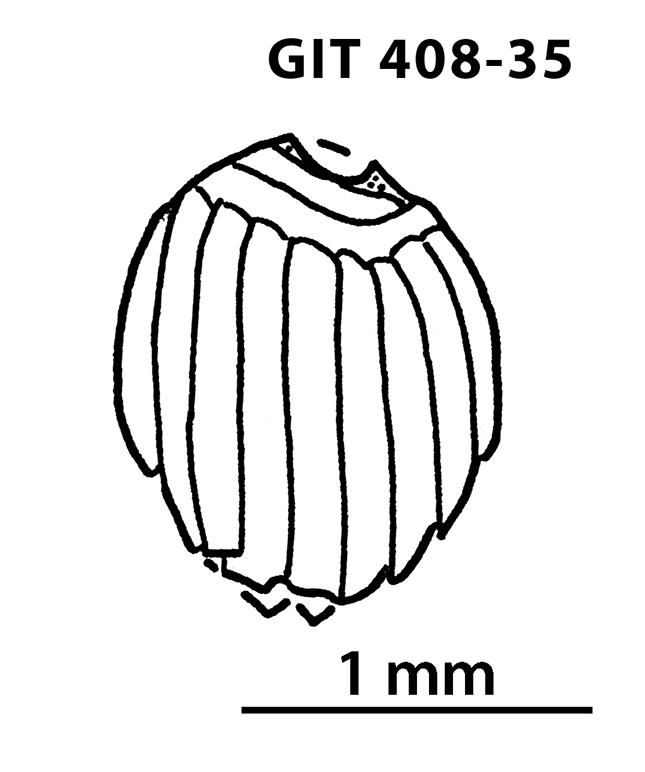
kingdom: Animalia
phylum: Chordata
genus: Archegonaspis
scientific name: Archegonaspis
